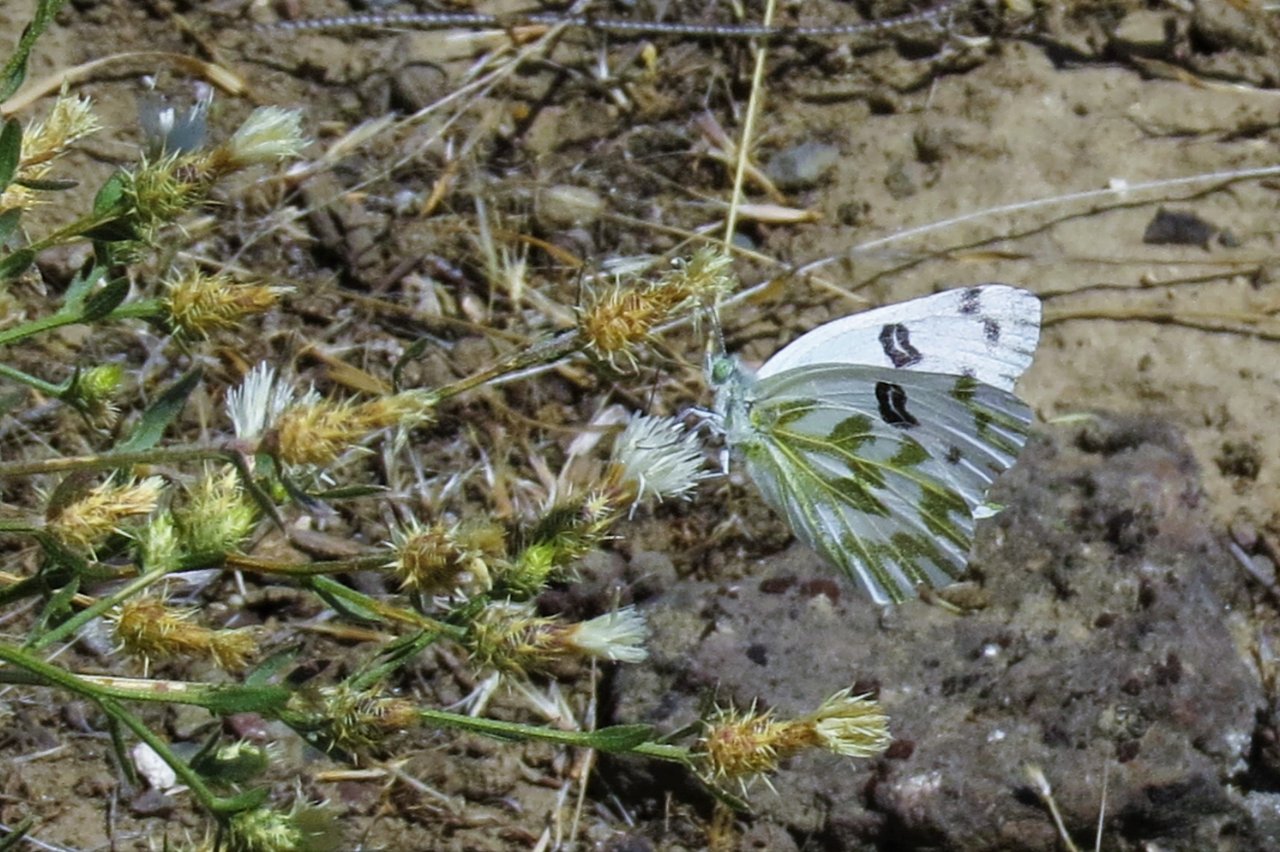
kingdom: Animalia
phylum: Arthropoda
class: Insecta
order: Lepidoptera
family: Pieridae
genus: Pontia
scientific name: Pontia beckerii
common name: Becker's White
